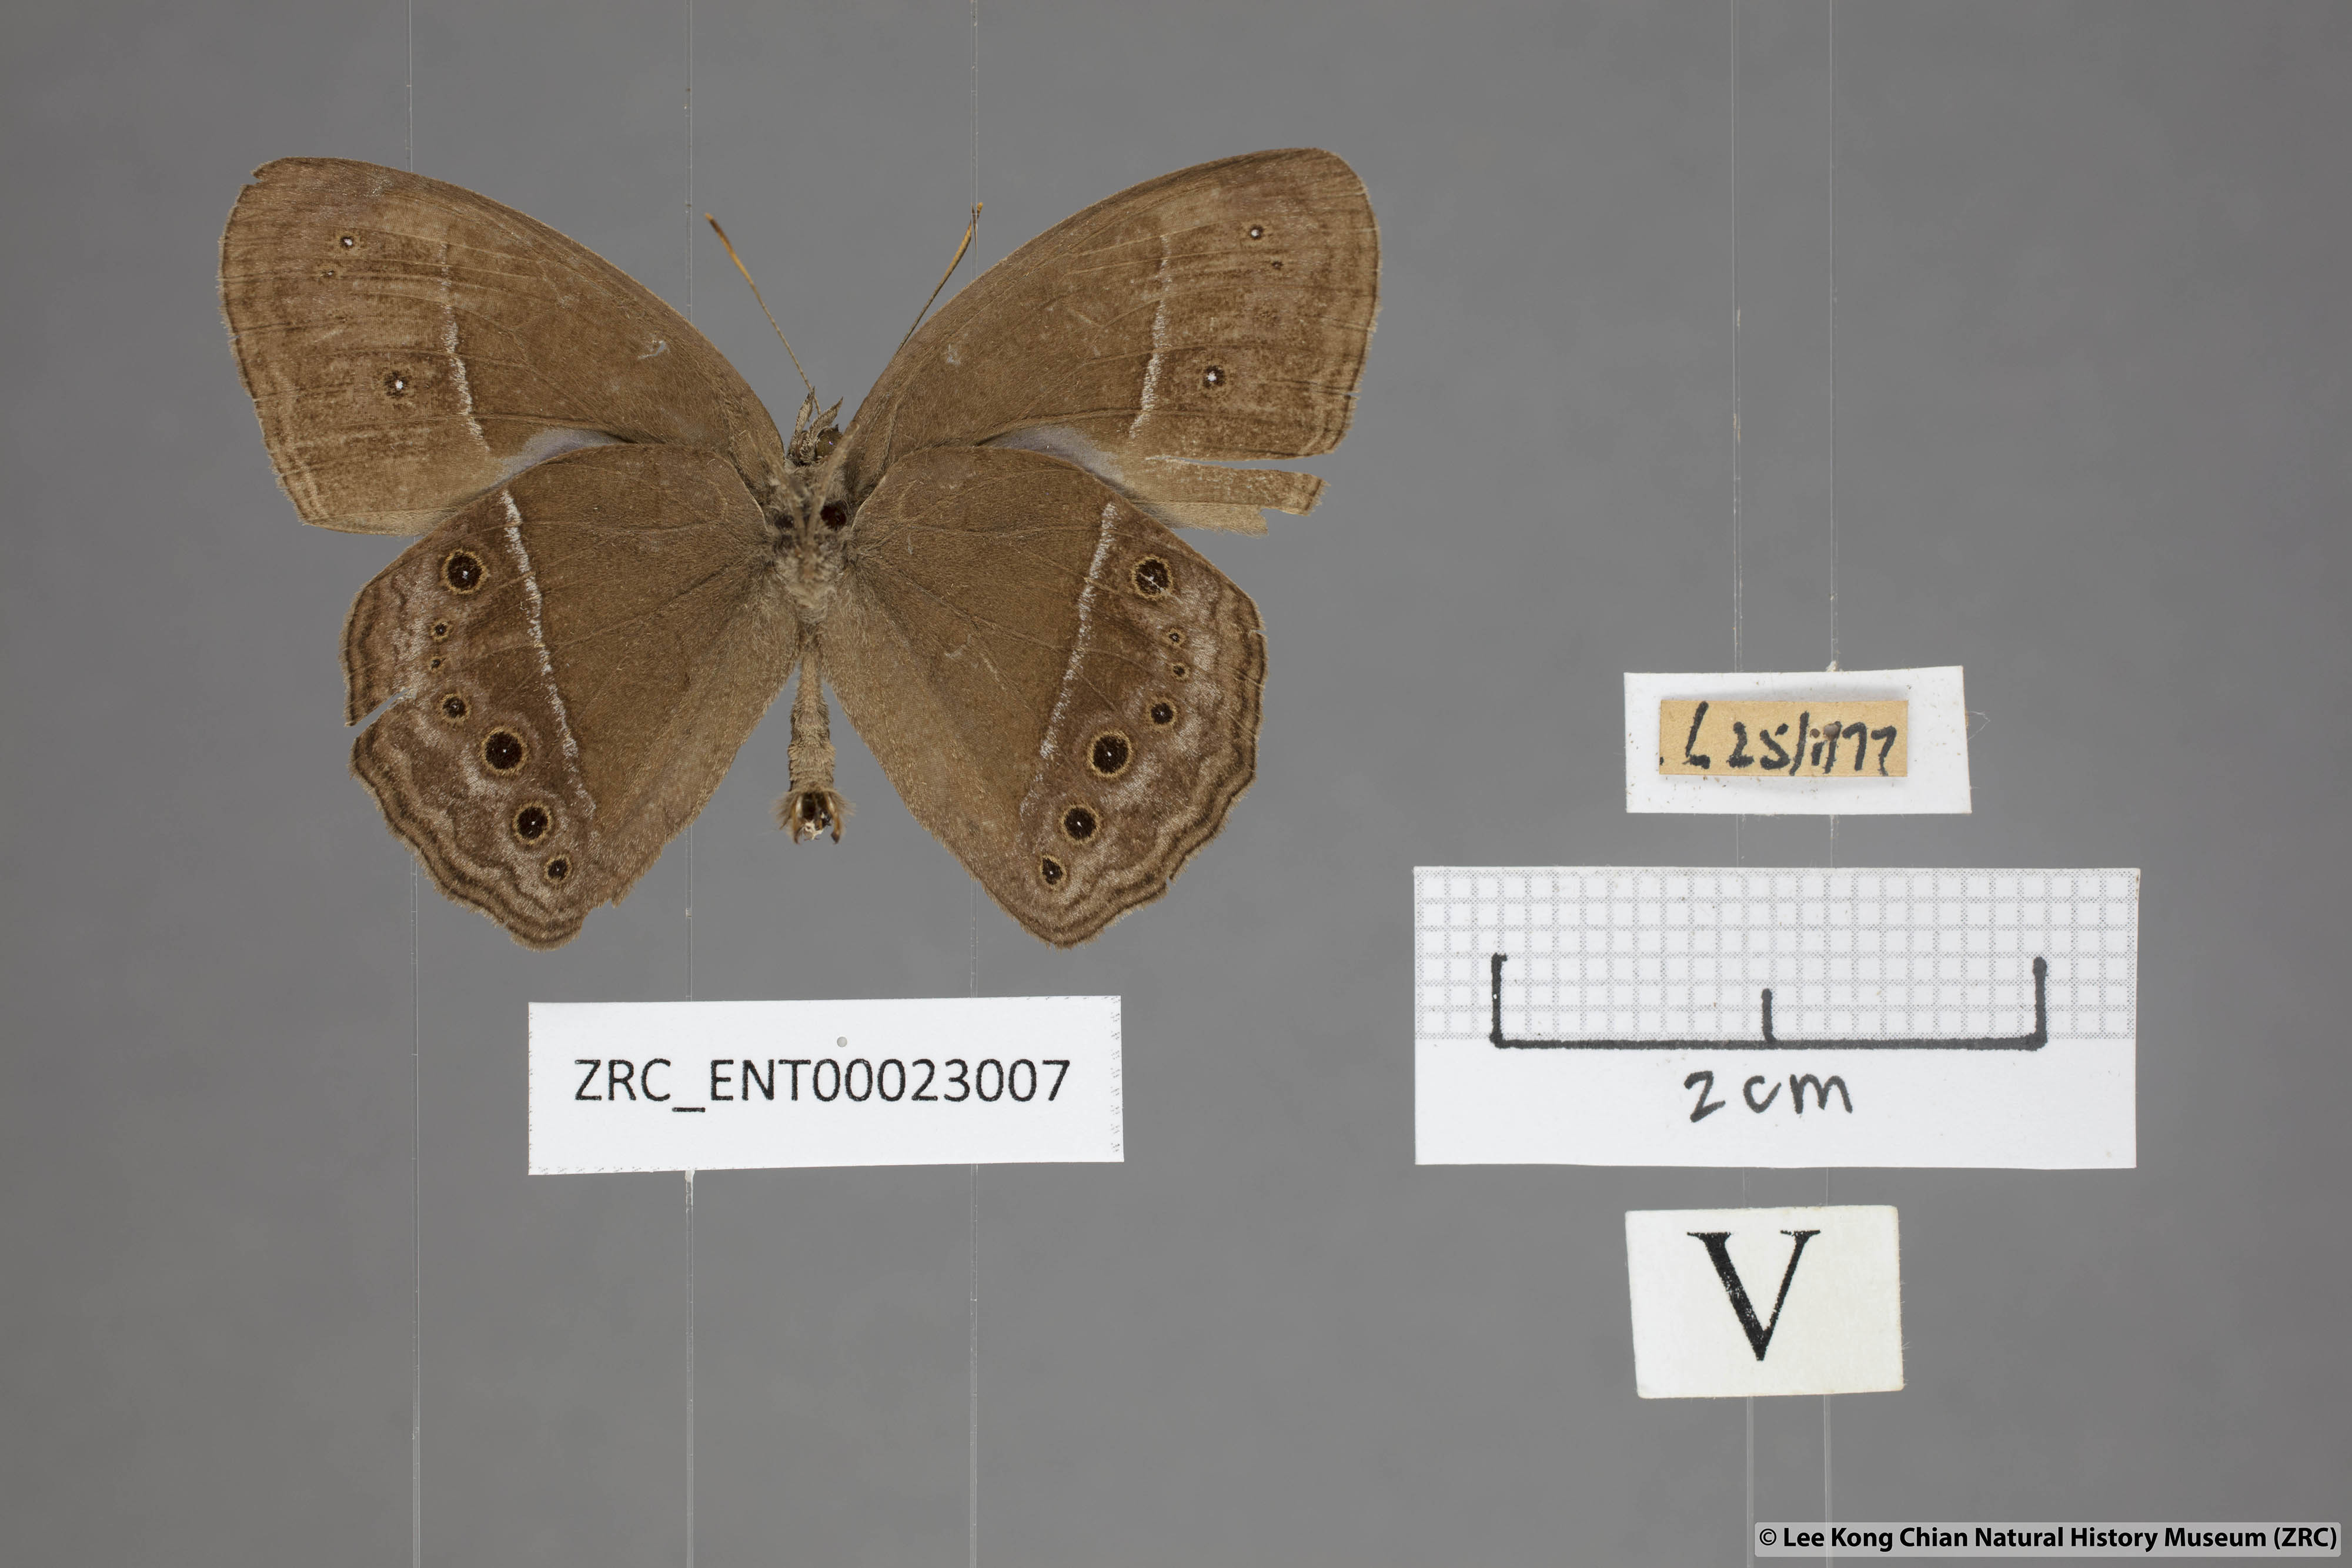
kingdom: Animalia
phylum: Arthropoda
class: Insecta
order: Lepidoptera
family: Nymphalidae
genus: Mycalesis
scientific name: Mycalesis perseus
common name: Dingy bushbrown
